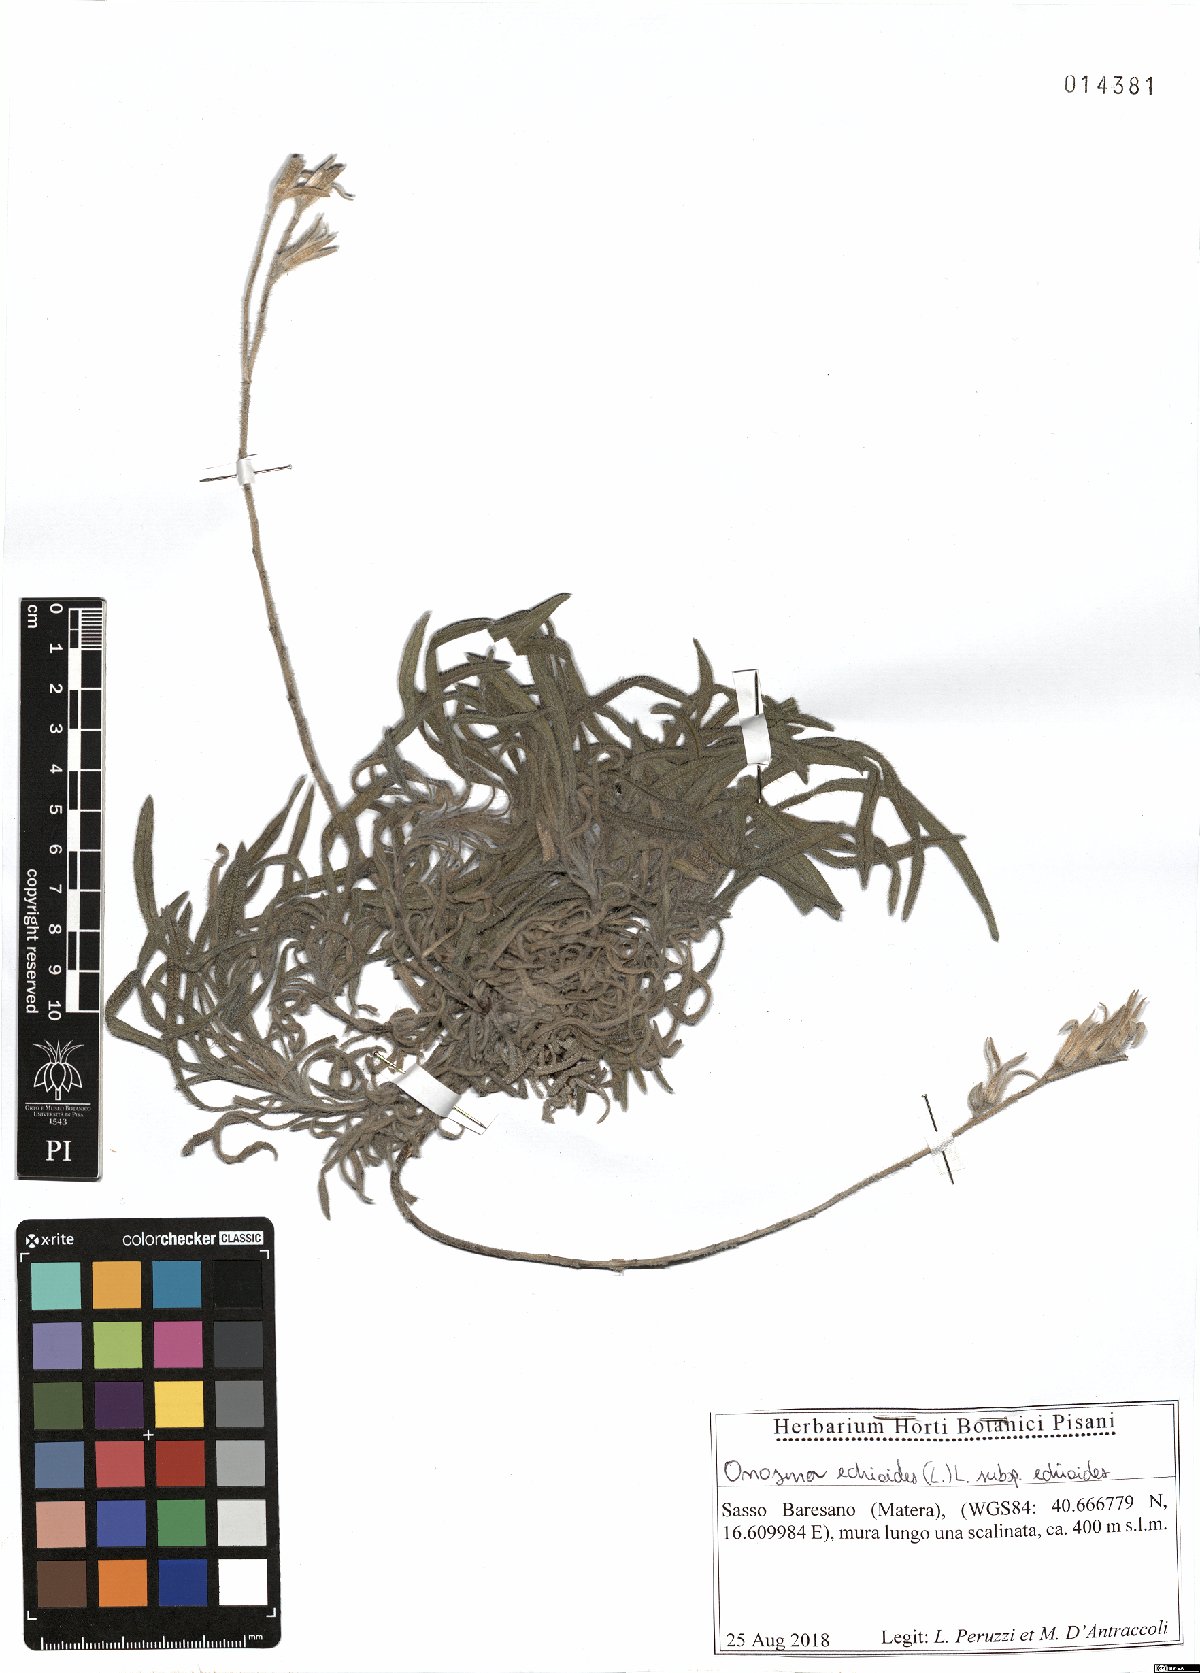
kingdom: Plantae
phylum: Tracheophyta
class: Magnoliopsida
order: Boraginales
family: Boraginaceae
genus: Onosma
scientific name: Onosma echioides
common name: Goldendrop
